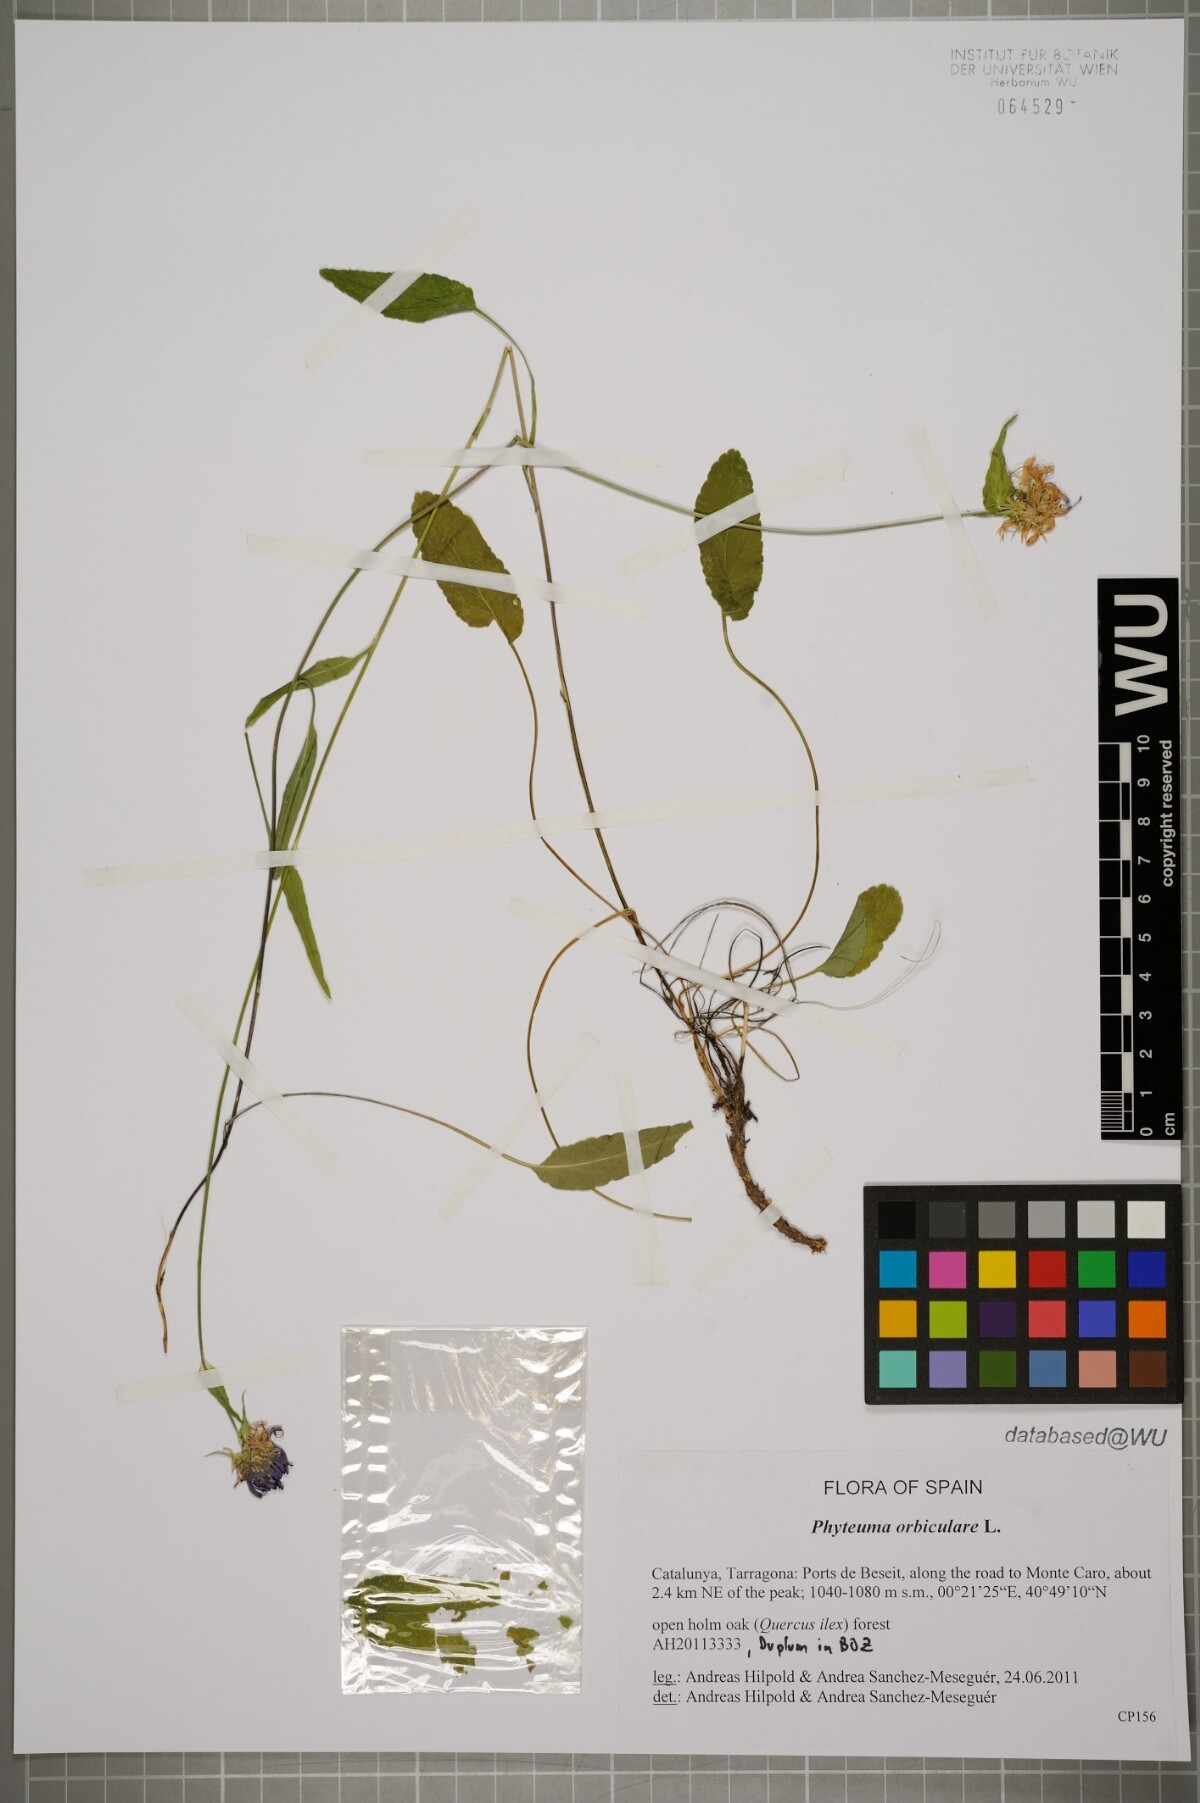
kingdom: Plantae
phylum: Tracheophyta
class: Magnoliopsida
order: Asterales
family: Campanulaceae
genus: Phyteuma
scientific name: Phyteuma orbiculare
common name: Round-headed rampion
